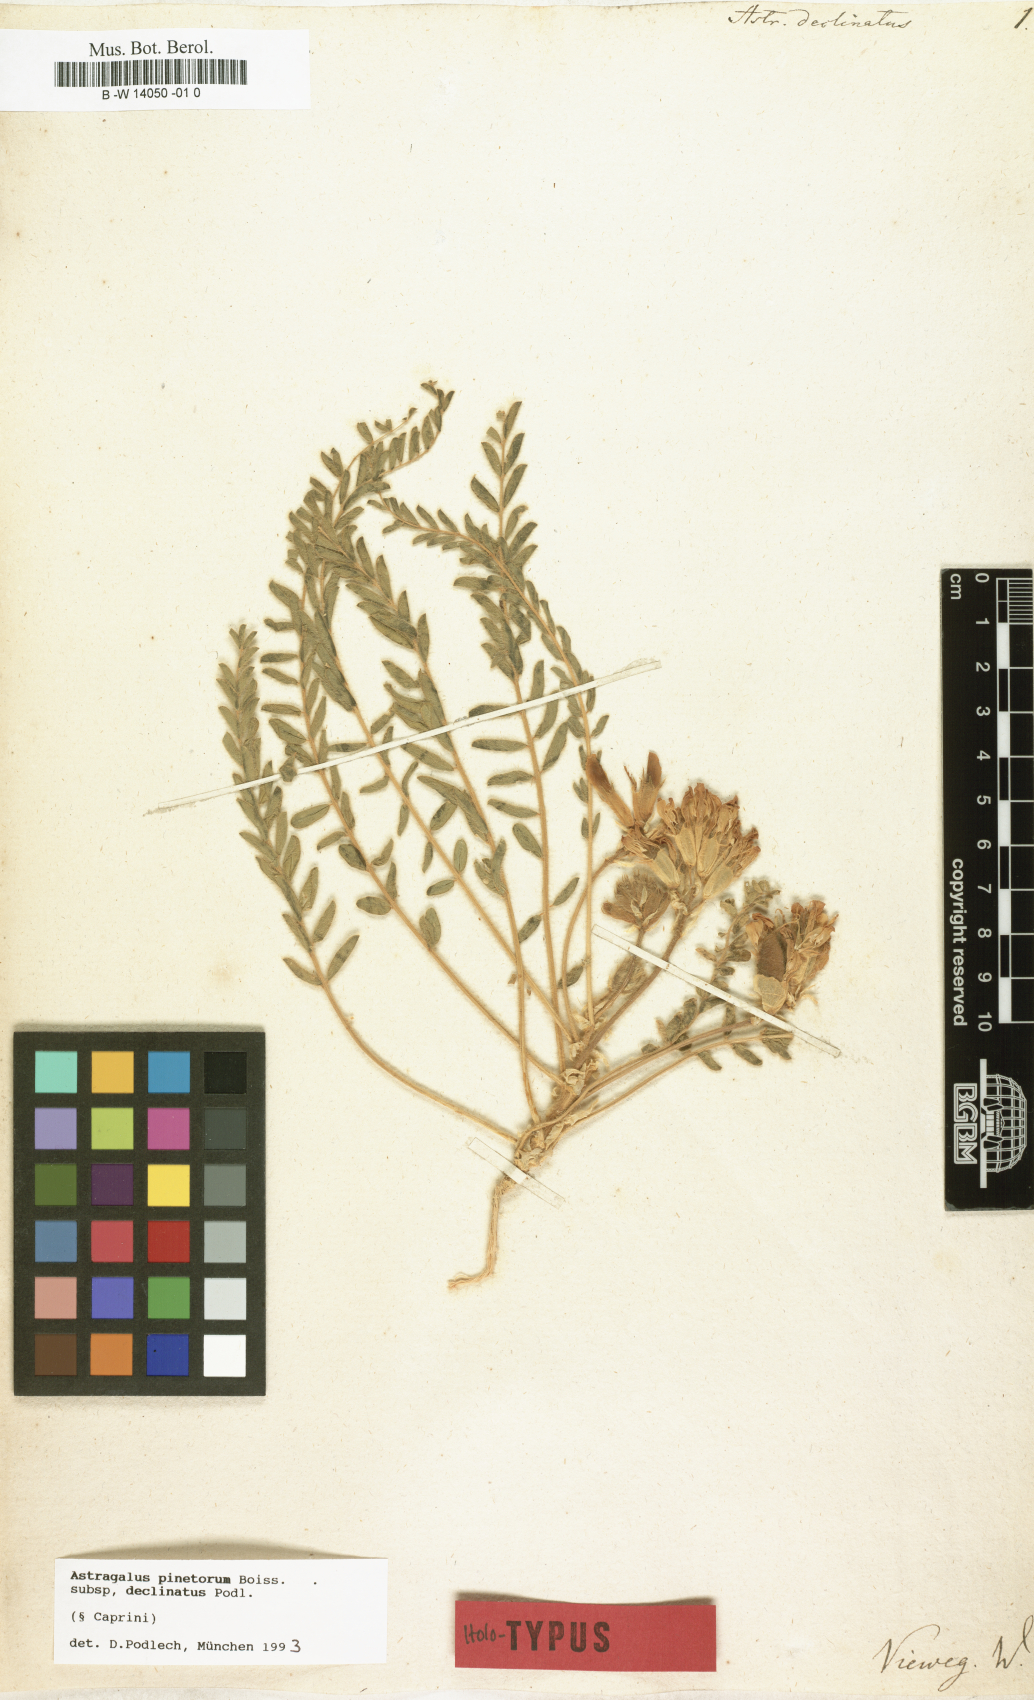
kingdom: Plantae
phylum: Tracheophyta
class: Magnoliopsida
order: Fabales
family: Fabaceae
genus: Astragalus
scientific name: Astragalus pinetorum
